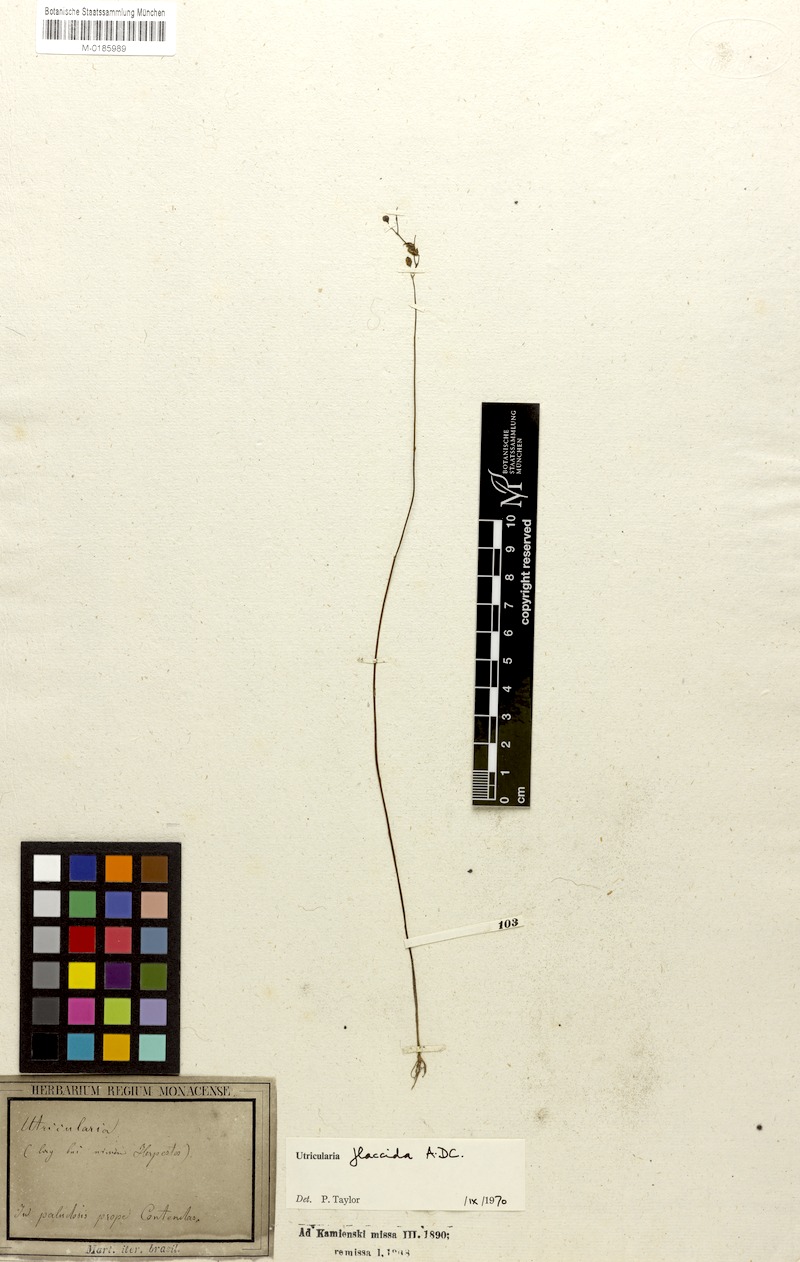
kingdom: Plantae
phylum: Tracheophyta
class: Magnoliopsida
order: Lamiales
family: Lentibulariaceae
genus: Utricularia
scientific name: Utricularia nervosa
